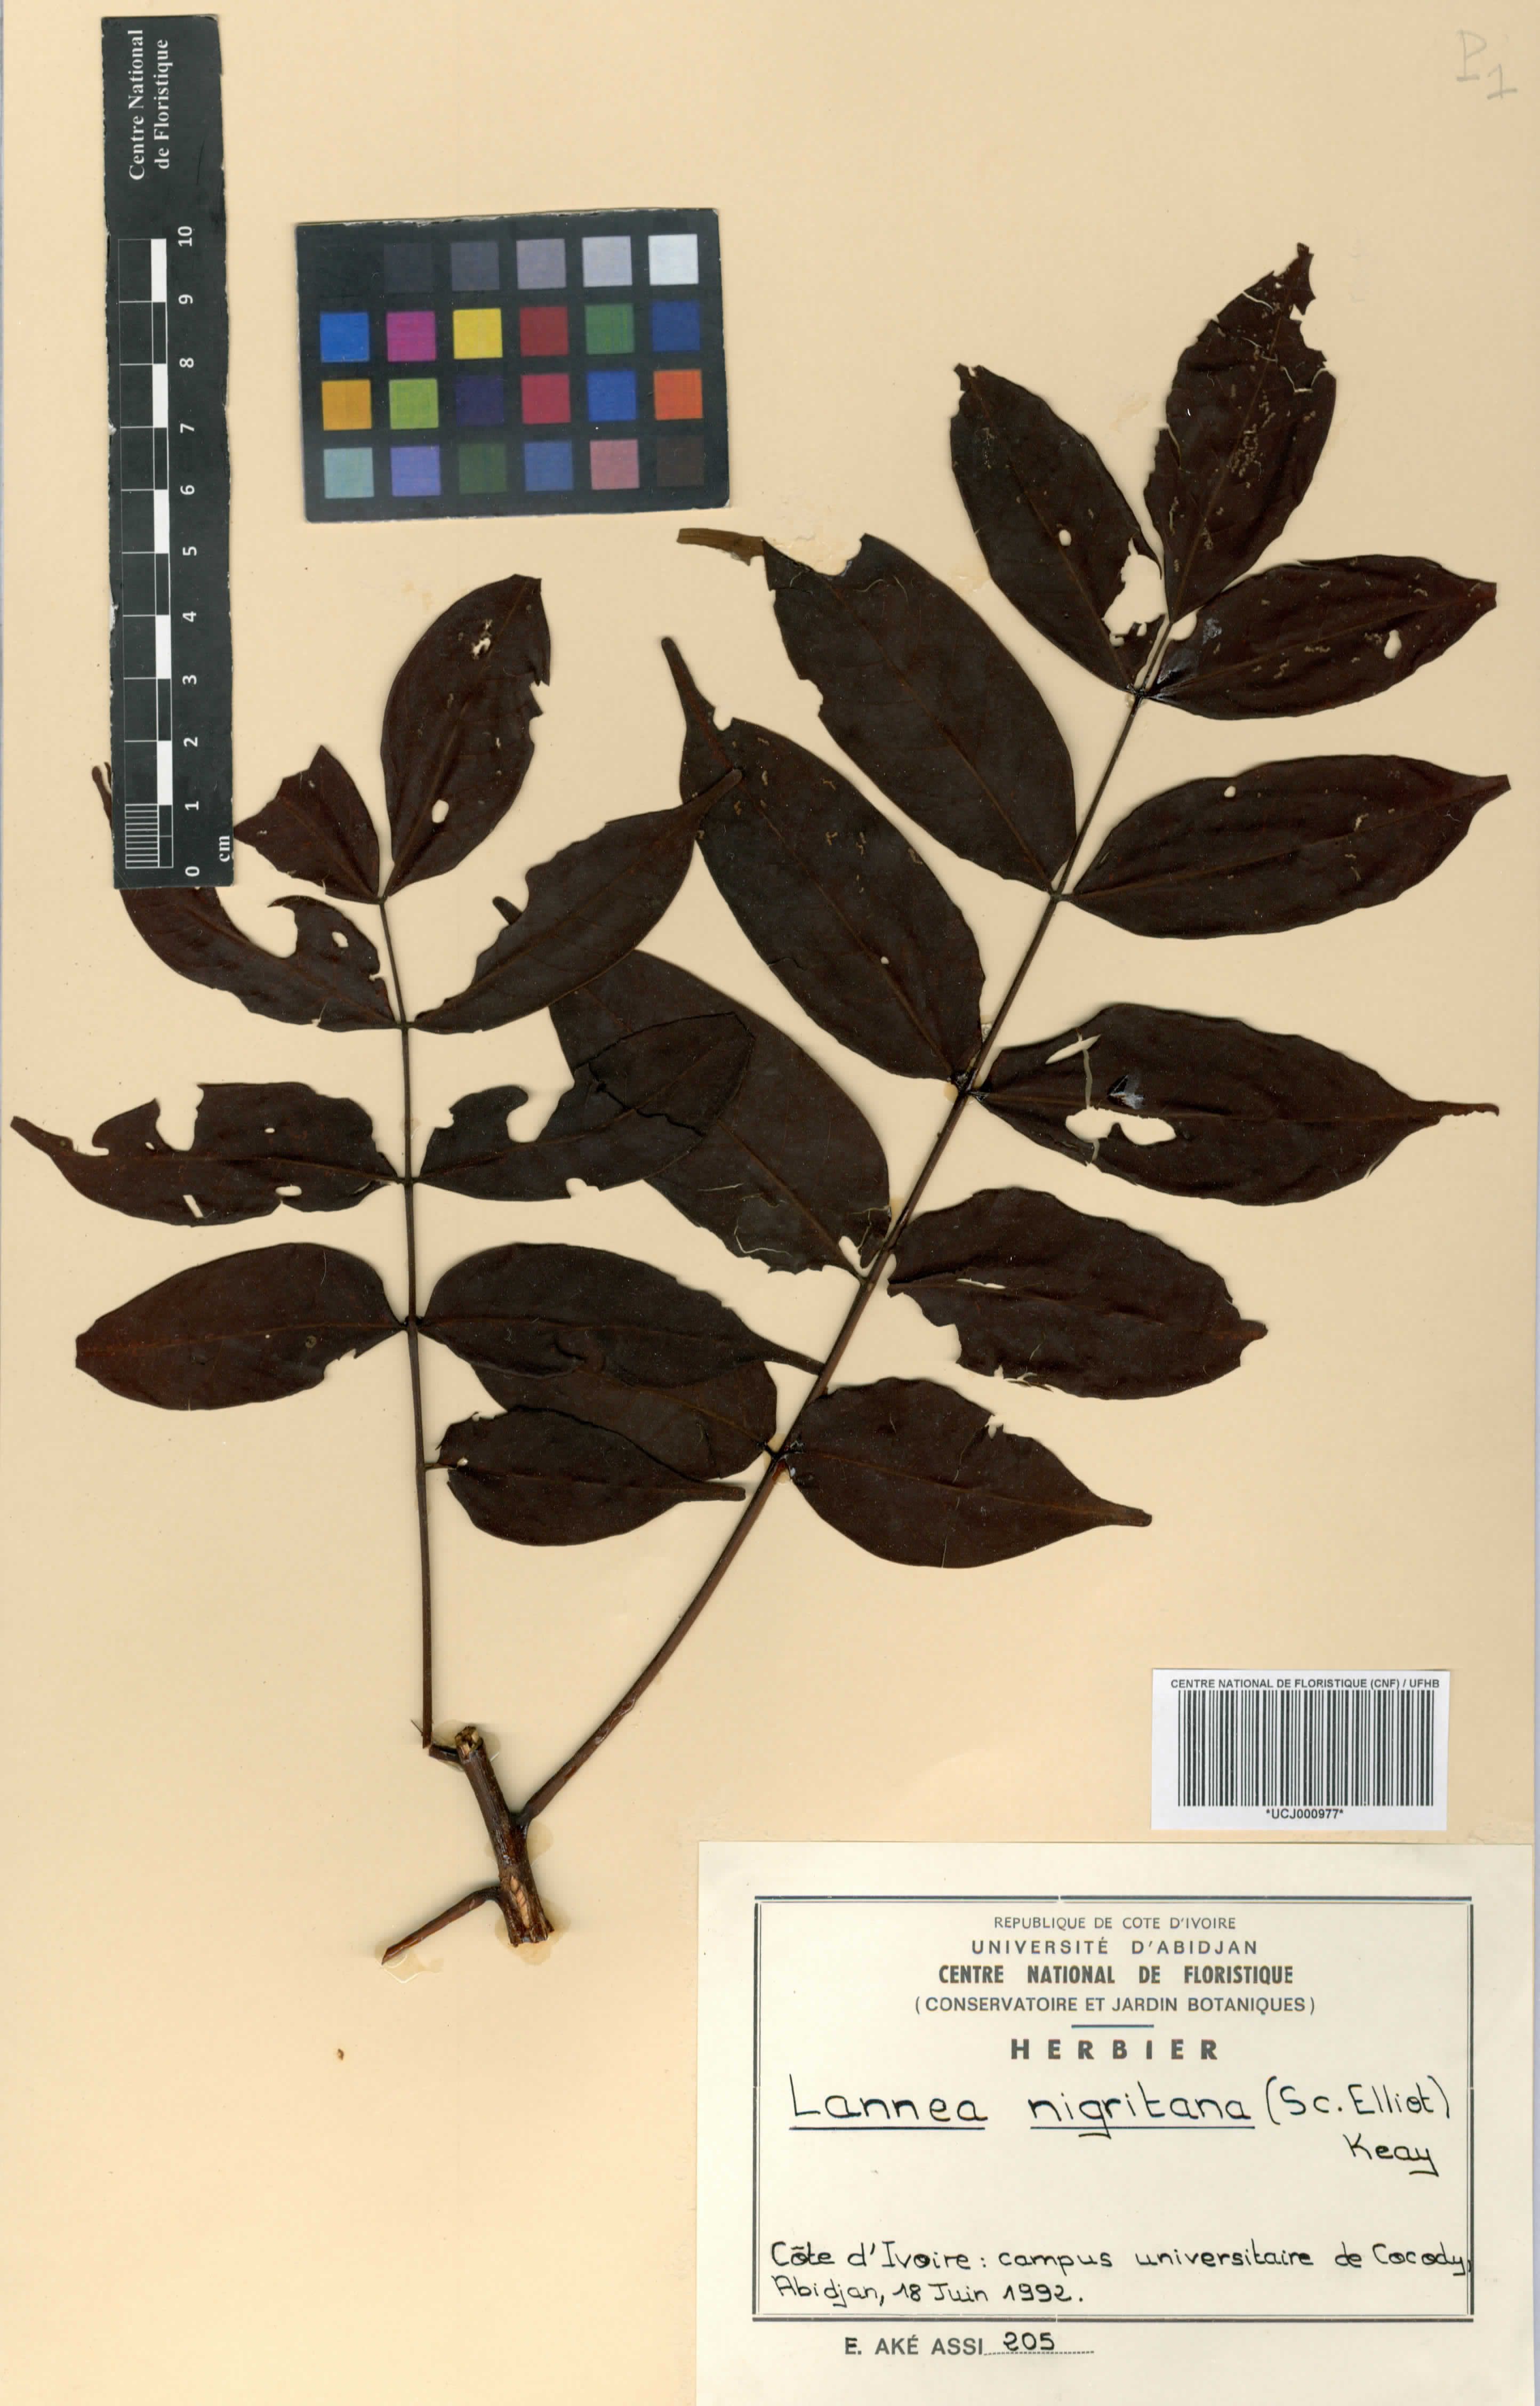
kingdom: Plantae
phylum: Tracheophyta
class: Magnoliopsida
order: Sapindales
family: Anacardiaceae
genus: Lannea
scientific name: Lannea nigritana
